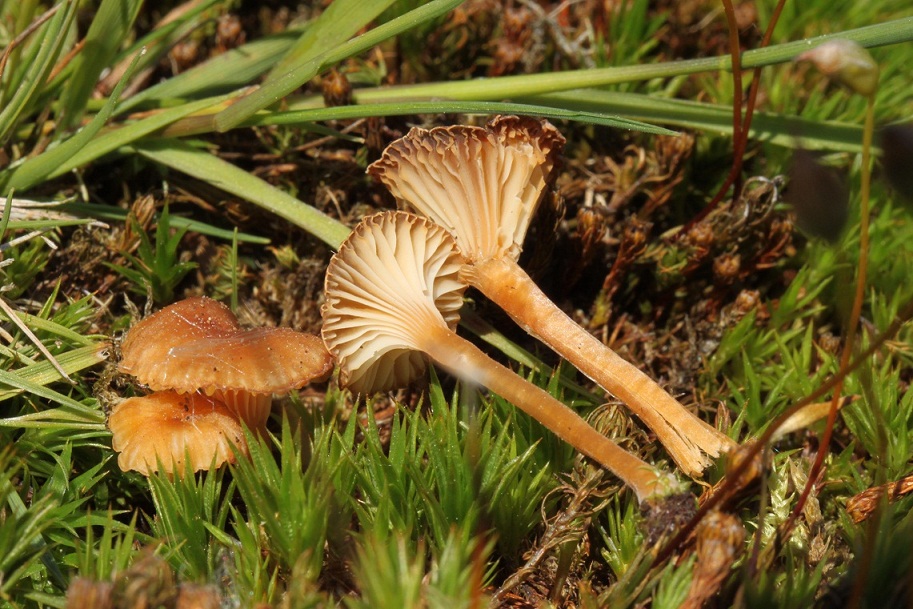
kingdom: Fungi
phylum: Basidiomycota
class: Agaricomycetes
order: Hymenochaetales
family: Rickenellaceae
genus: Rickenella
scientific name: Rickenella fibula
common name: orange mosnavlehat
